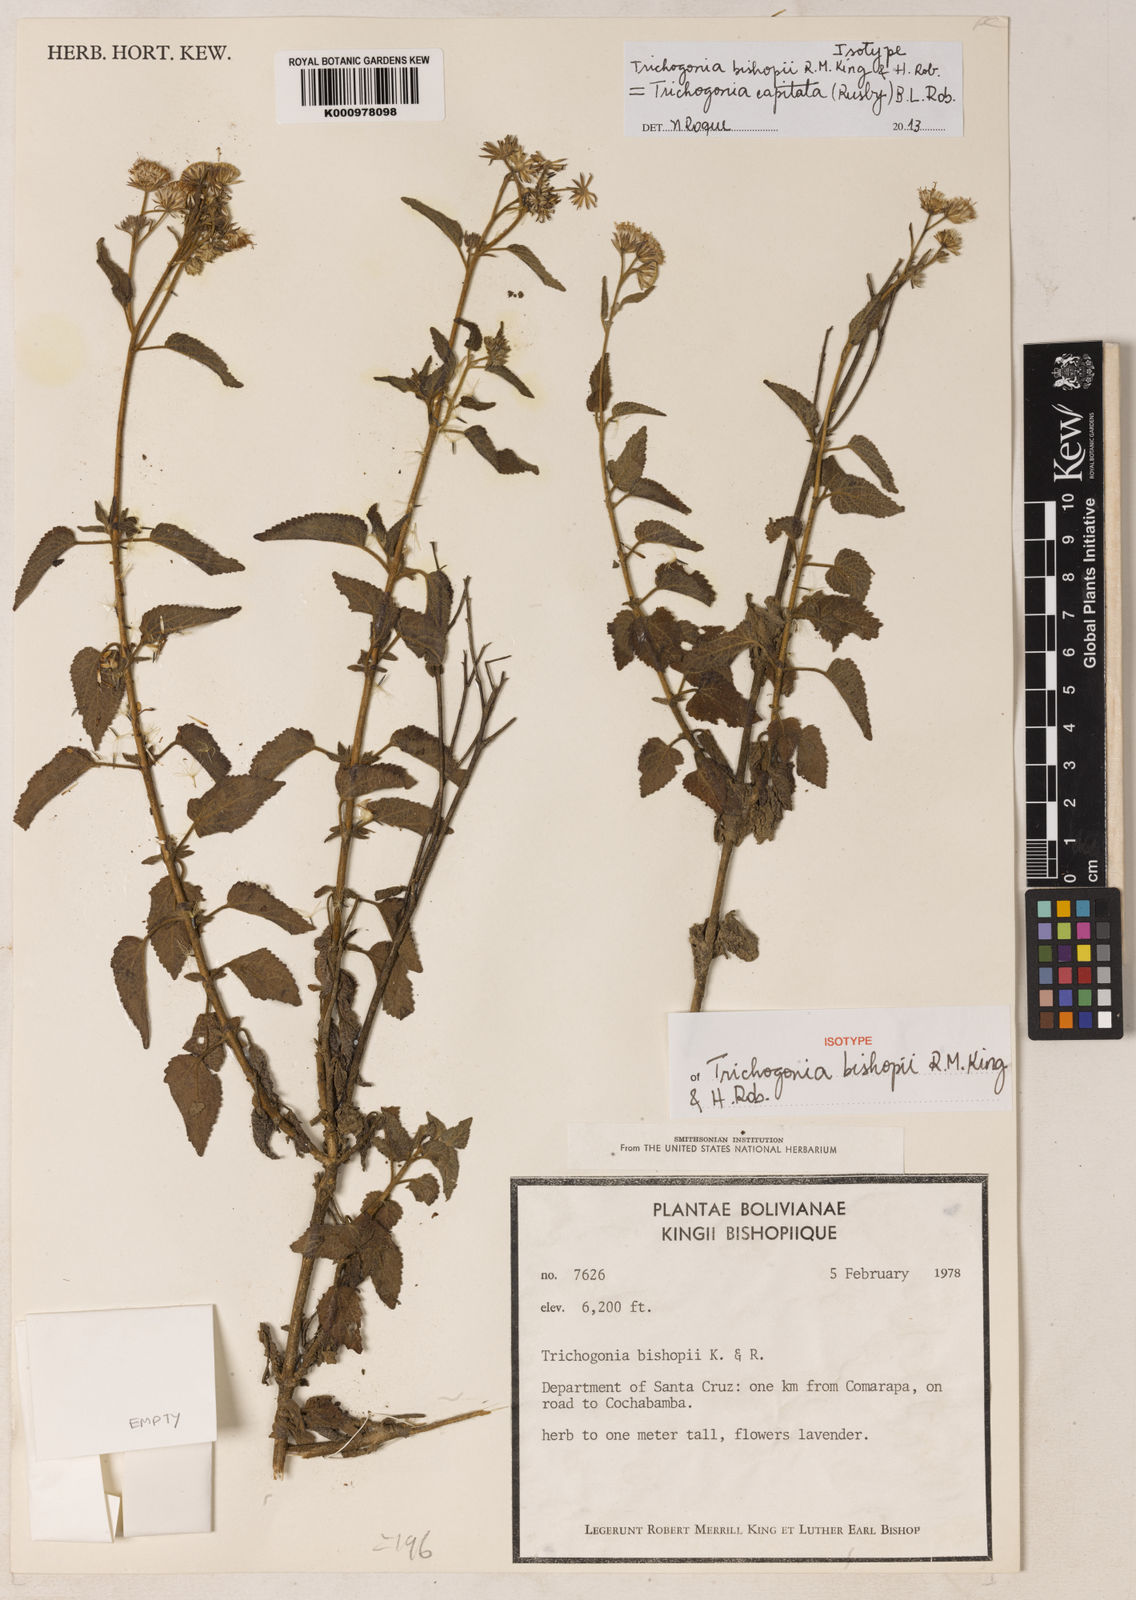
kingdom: Plantae
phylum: Tracheophyta
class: Magnoliopsida
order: Asterales
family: Asteraceae
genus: Trichogonia
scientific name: Trichogonia capitata
